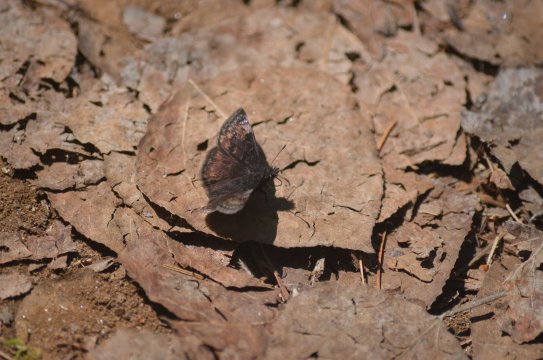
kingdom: Animalia
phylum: Arthropoda
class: Insecta
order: Lepidoptera
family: Hesperiidae
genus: Gesta
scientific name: Gesta
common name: Columbine Duskywing
